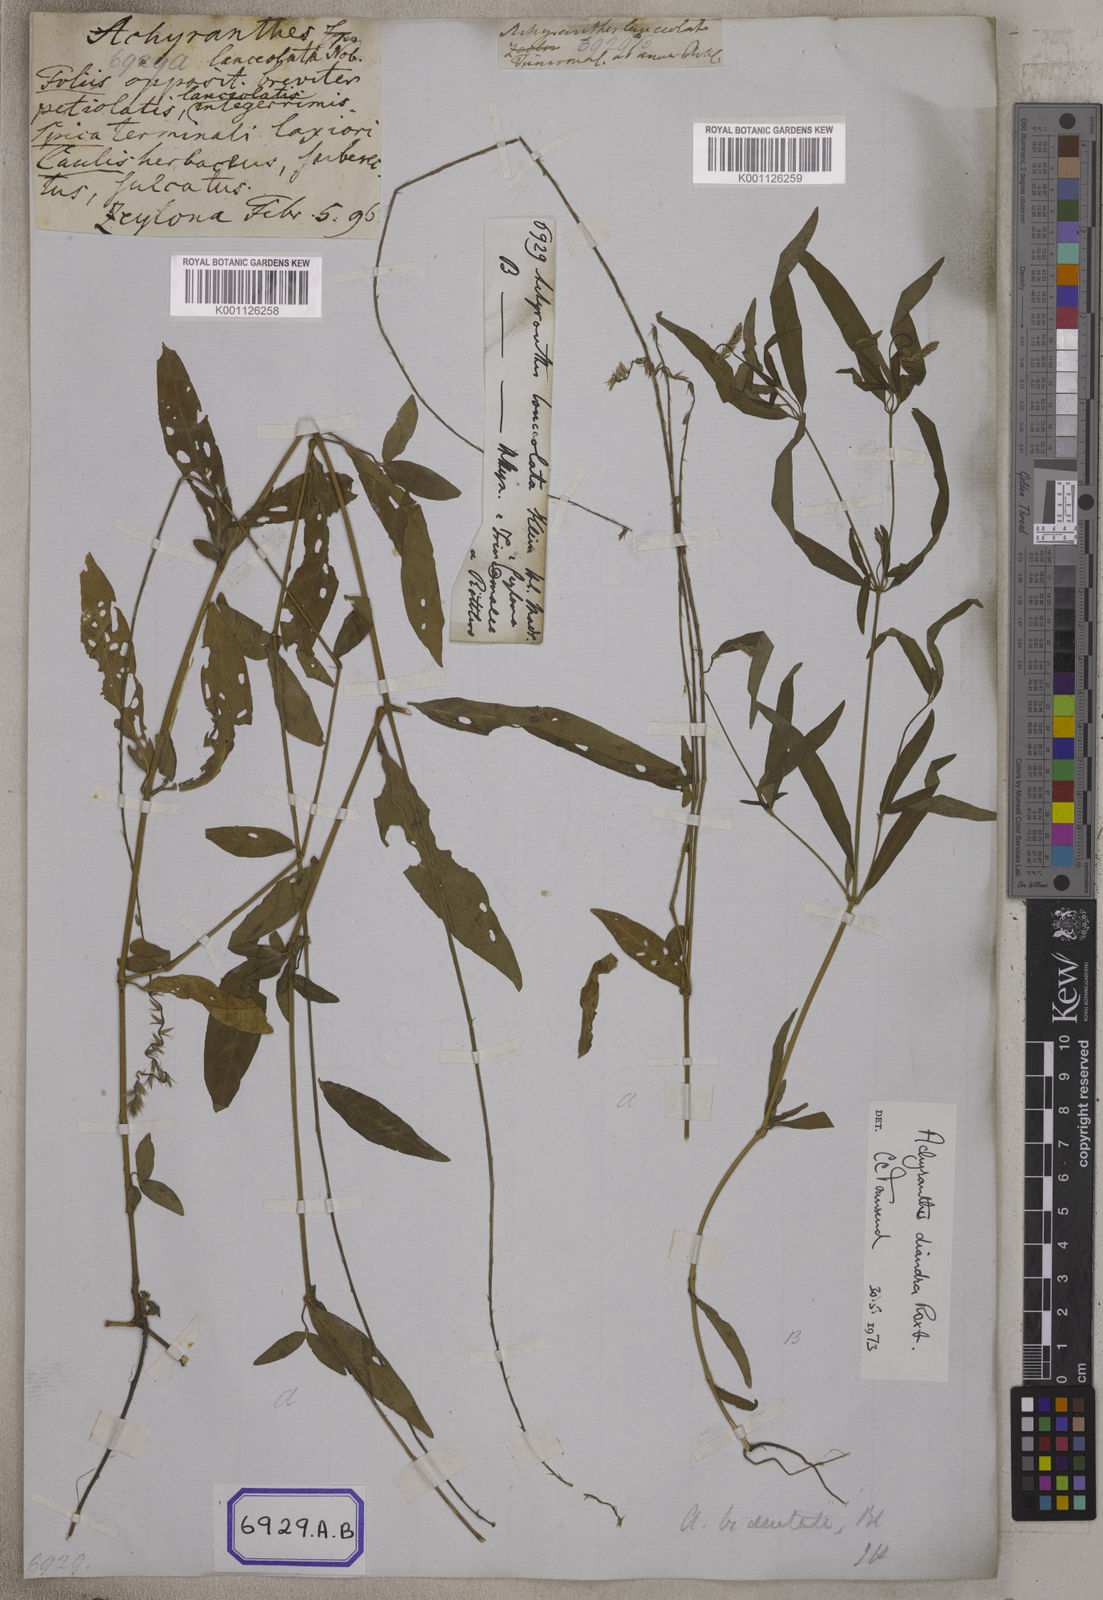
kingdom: Plantae
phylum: Tracheophyta
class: Magnoliopsida
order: Caryophyllales
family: Amaranthaceae
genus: Achyranthes
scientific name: Achyranthes
